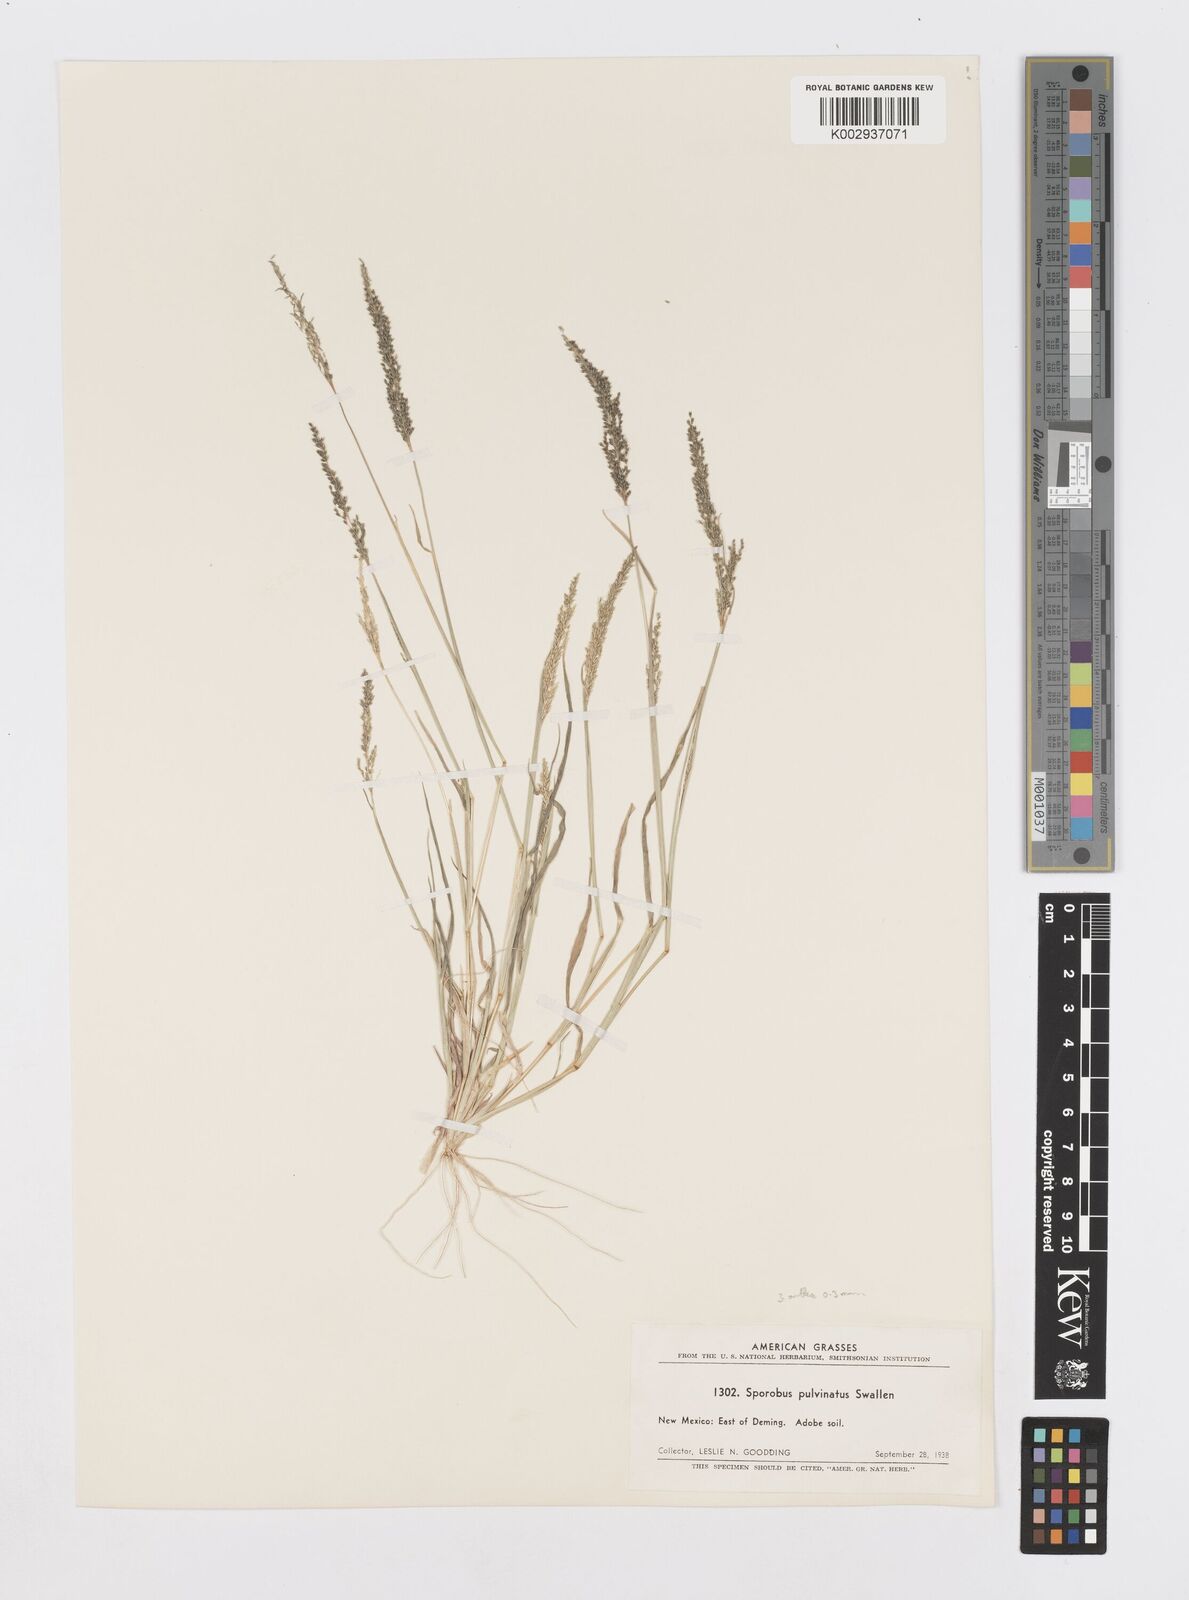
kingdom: Plantae
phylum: Tracheophyta
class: Liliopsida
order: Poales
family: Poaceae
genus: Sporobolus
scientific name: Sporobolus pyramidatus
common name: Whorled dropseed
